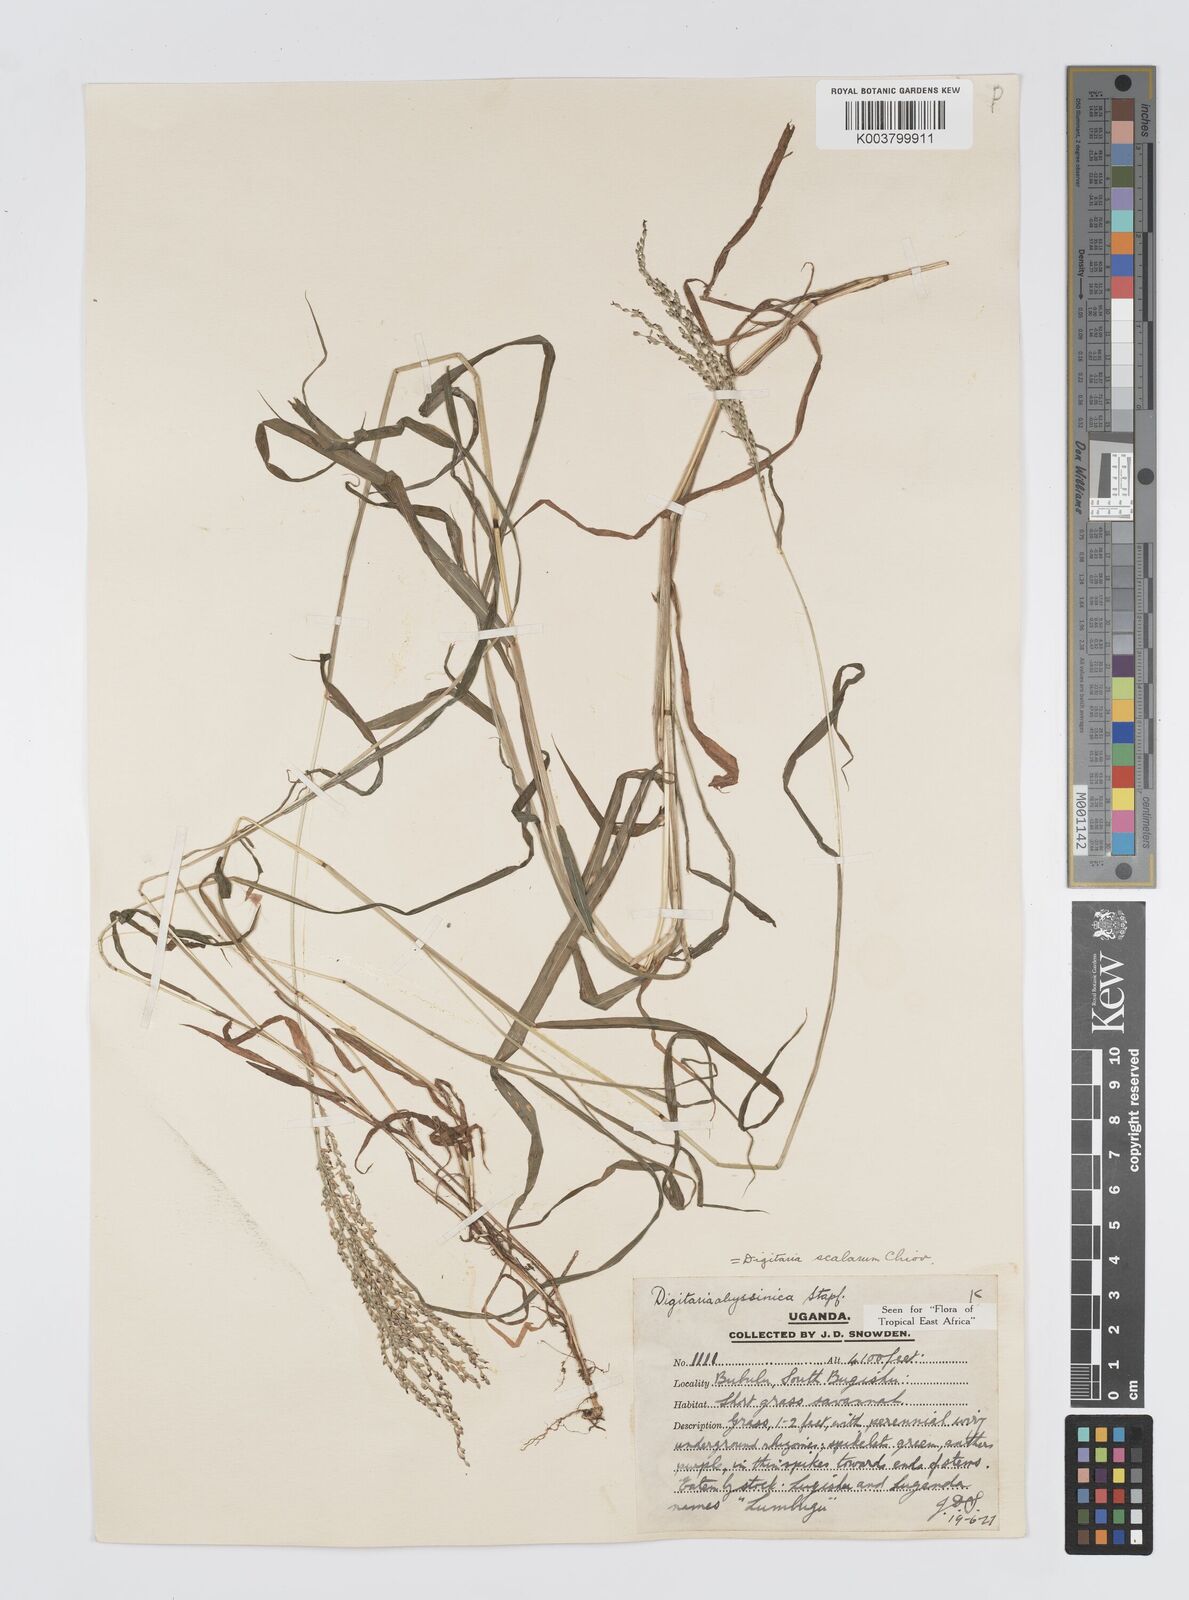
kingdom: Plantae
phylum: Tracheophyta
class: Liliopsida
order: Poales
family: Poaceae
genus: Digitaria
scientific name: Digitaria abyssinica
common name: African couchgrass
